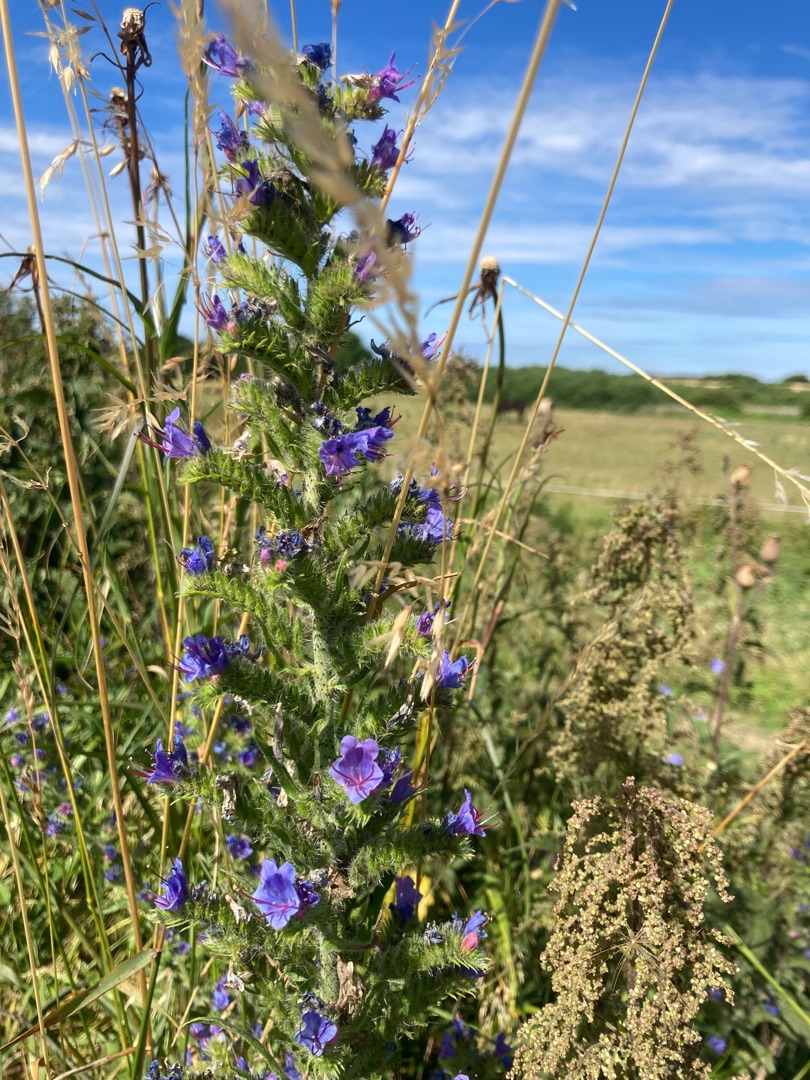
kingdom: Plantae
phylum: Tracheophyta
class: Magnoliopsida
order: Boraginales
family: Boraginaceae
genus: Echium
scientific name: Echium vulgare
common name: Slangehoved
